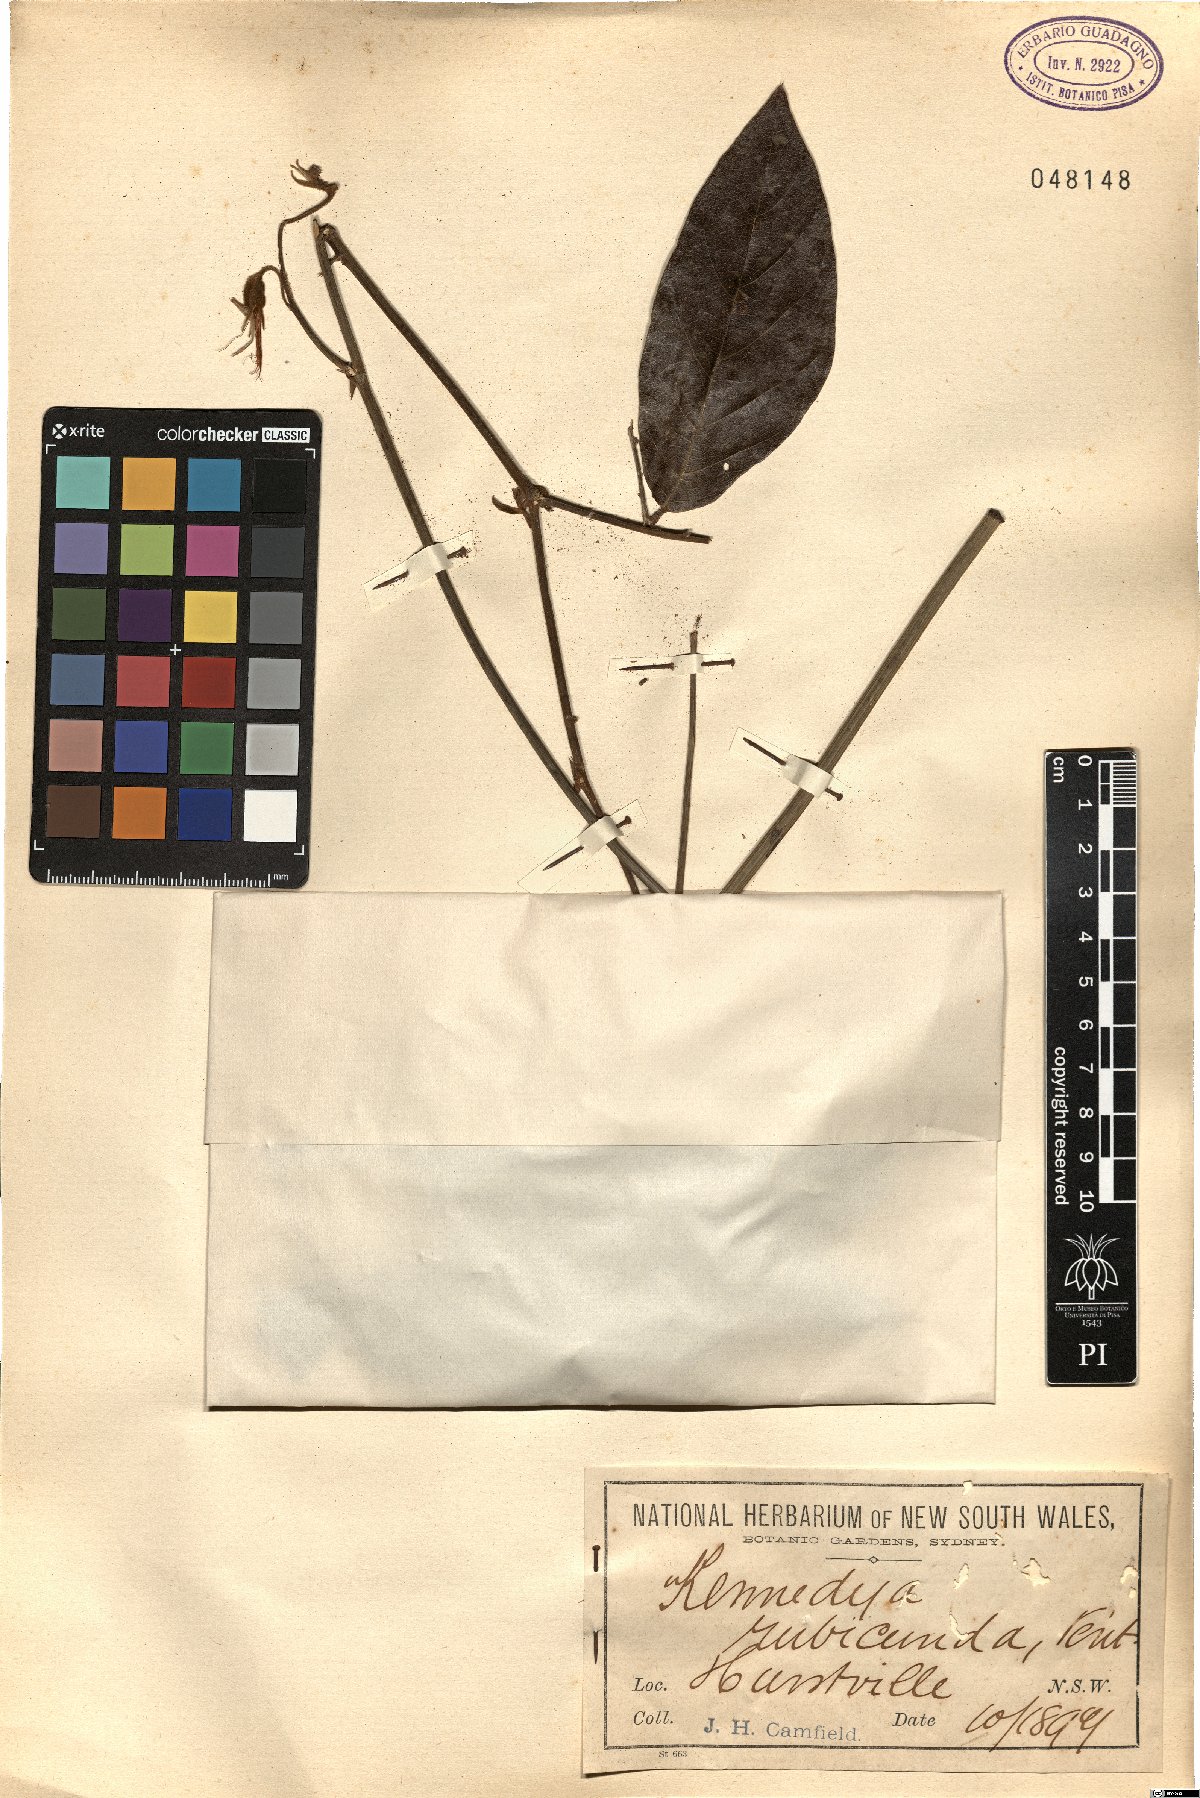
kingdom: Plantae
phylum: Tracheophyta
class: Magnoliopsida
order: Fabales
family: Fabaceae
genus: Kennedia
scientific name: Kennedia rubicunda
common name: Red kennedy-pea
